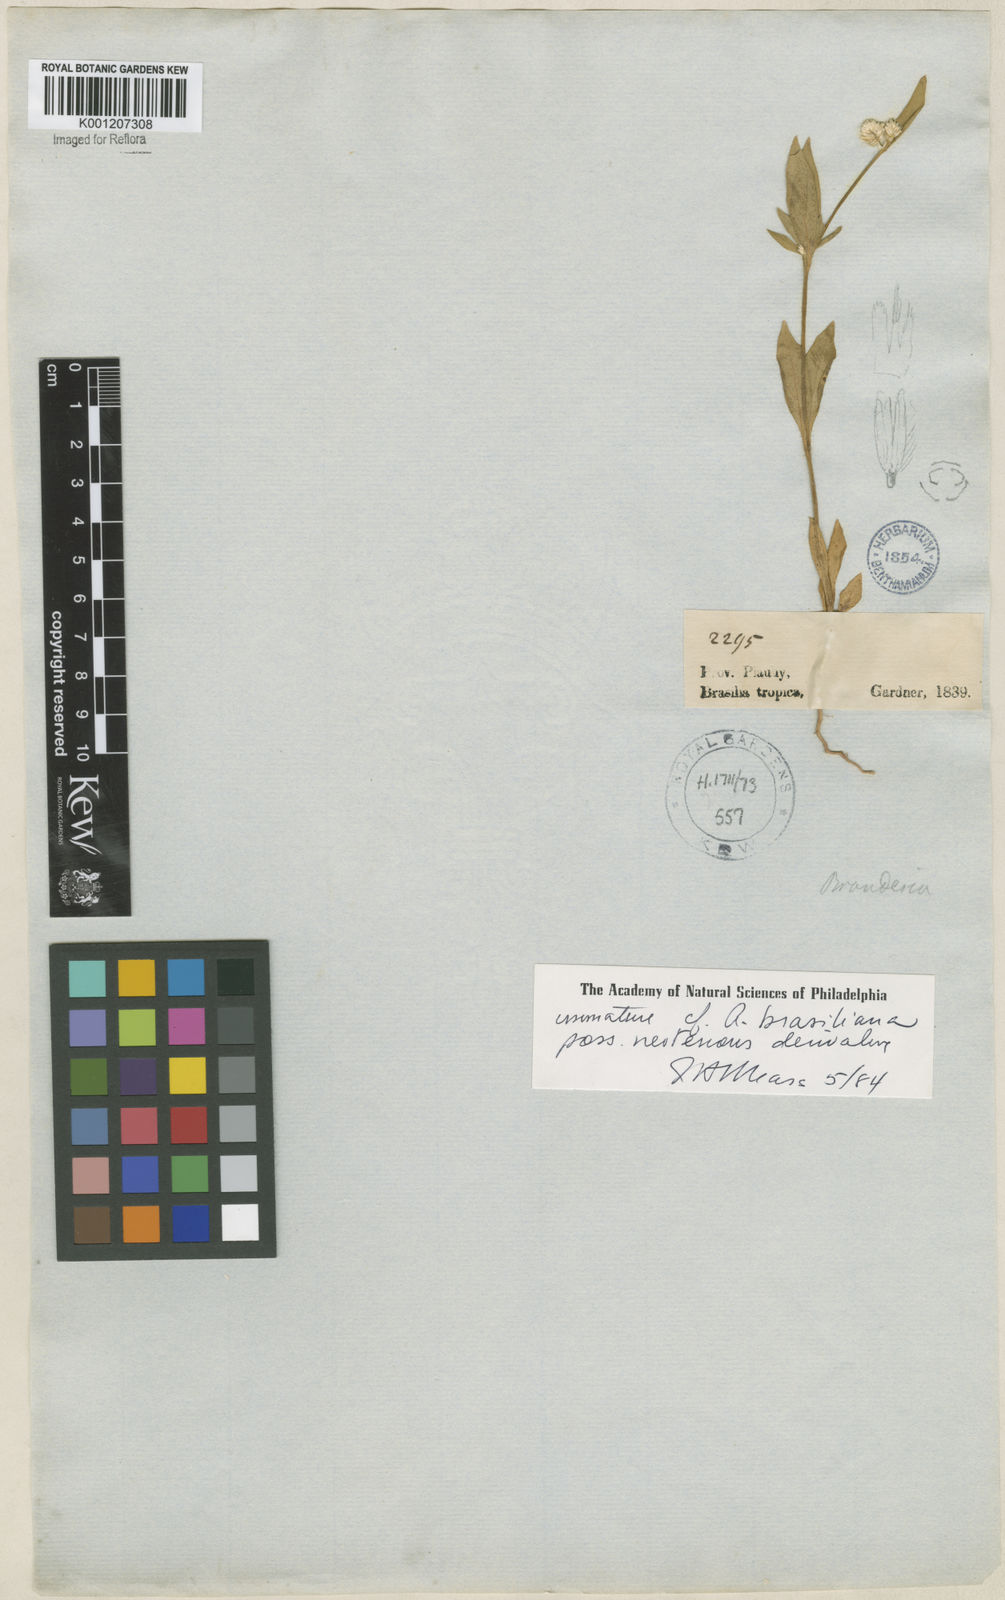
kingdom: Plantae
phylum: Tracheophyta
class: Magnoliopsida
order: Caryophyllales
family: Amaranthaceae
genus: Alternanthera
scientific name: Alternanthera brasiliana
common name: Brazilian joyweed
